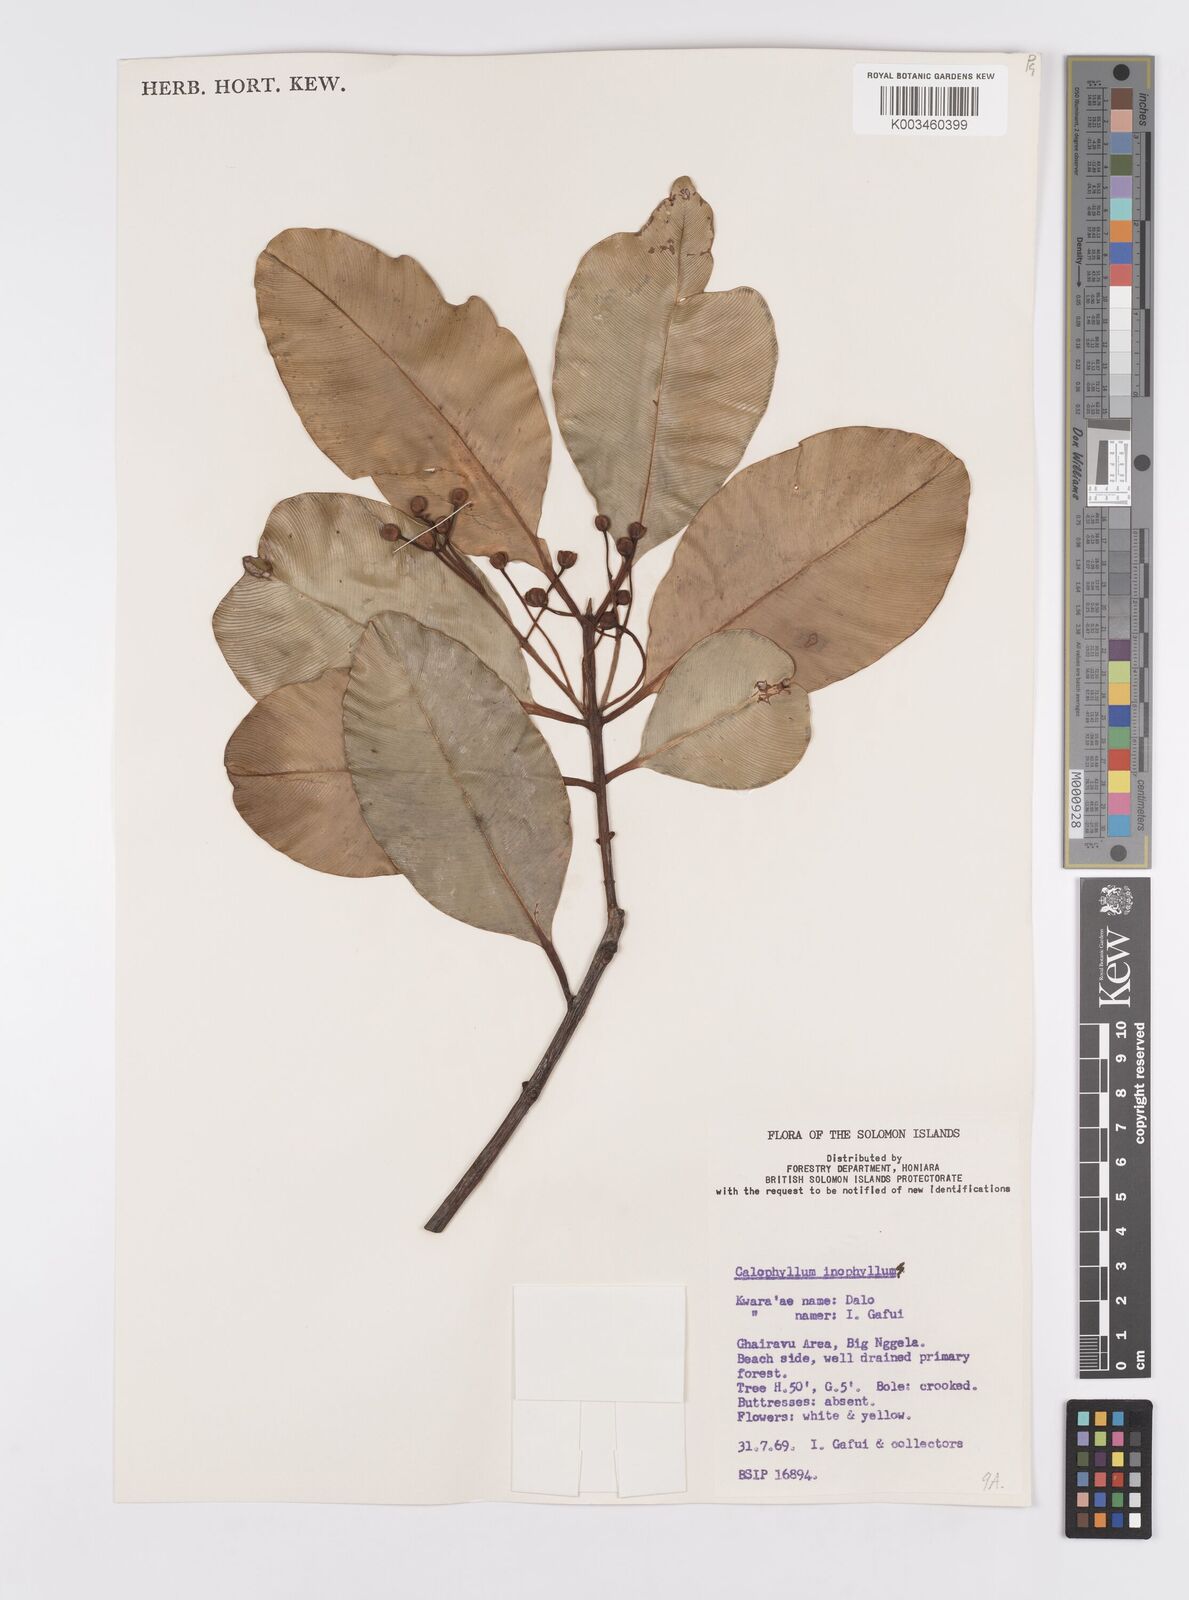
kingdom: Plantae
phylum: Tracheophyta
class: Magnoliopsida
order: Malpighiales
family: Calophyllaceae
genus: Calophyllum
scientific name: Calophyllum inophyllum
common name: Alexandrian laurel
